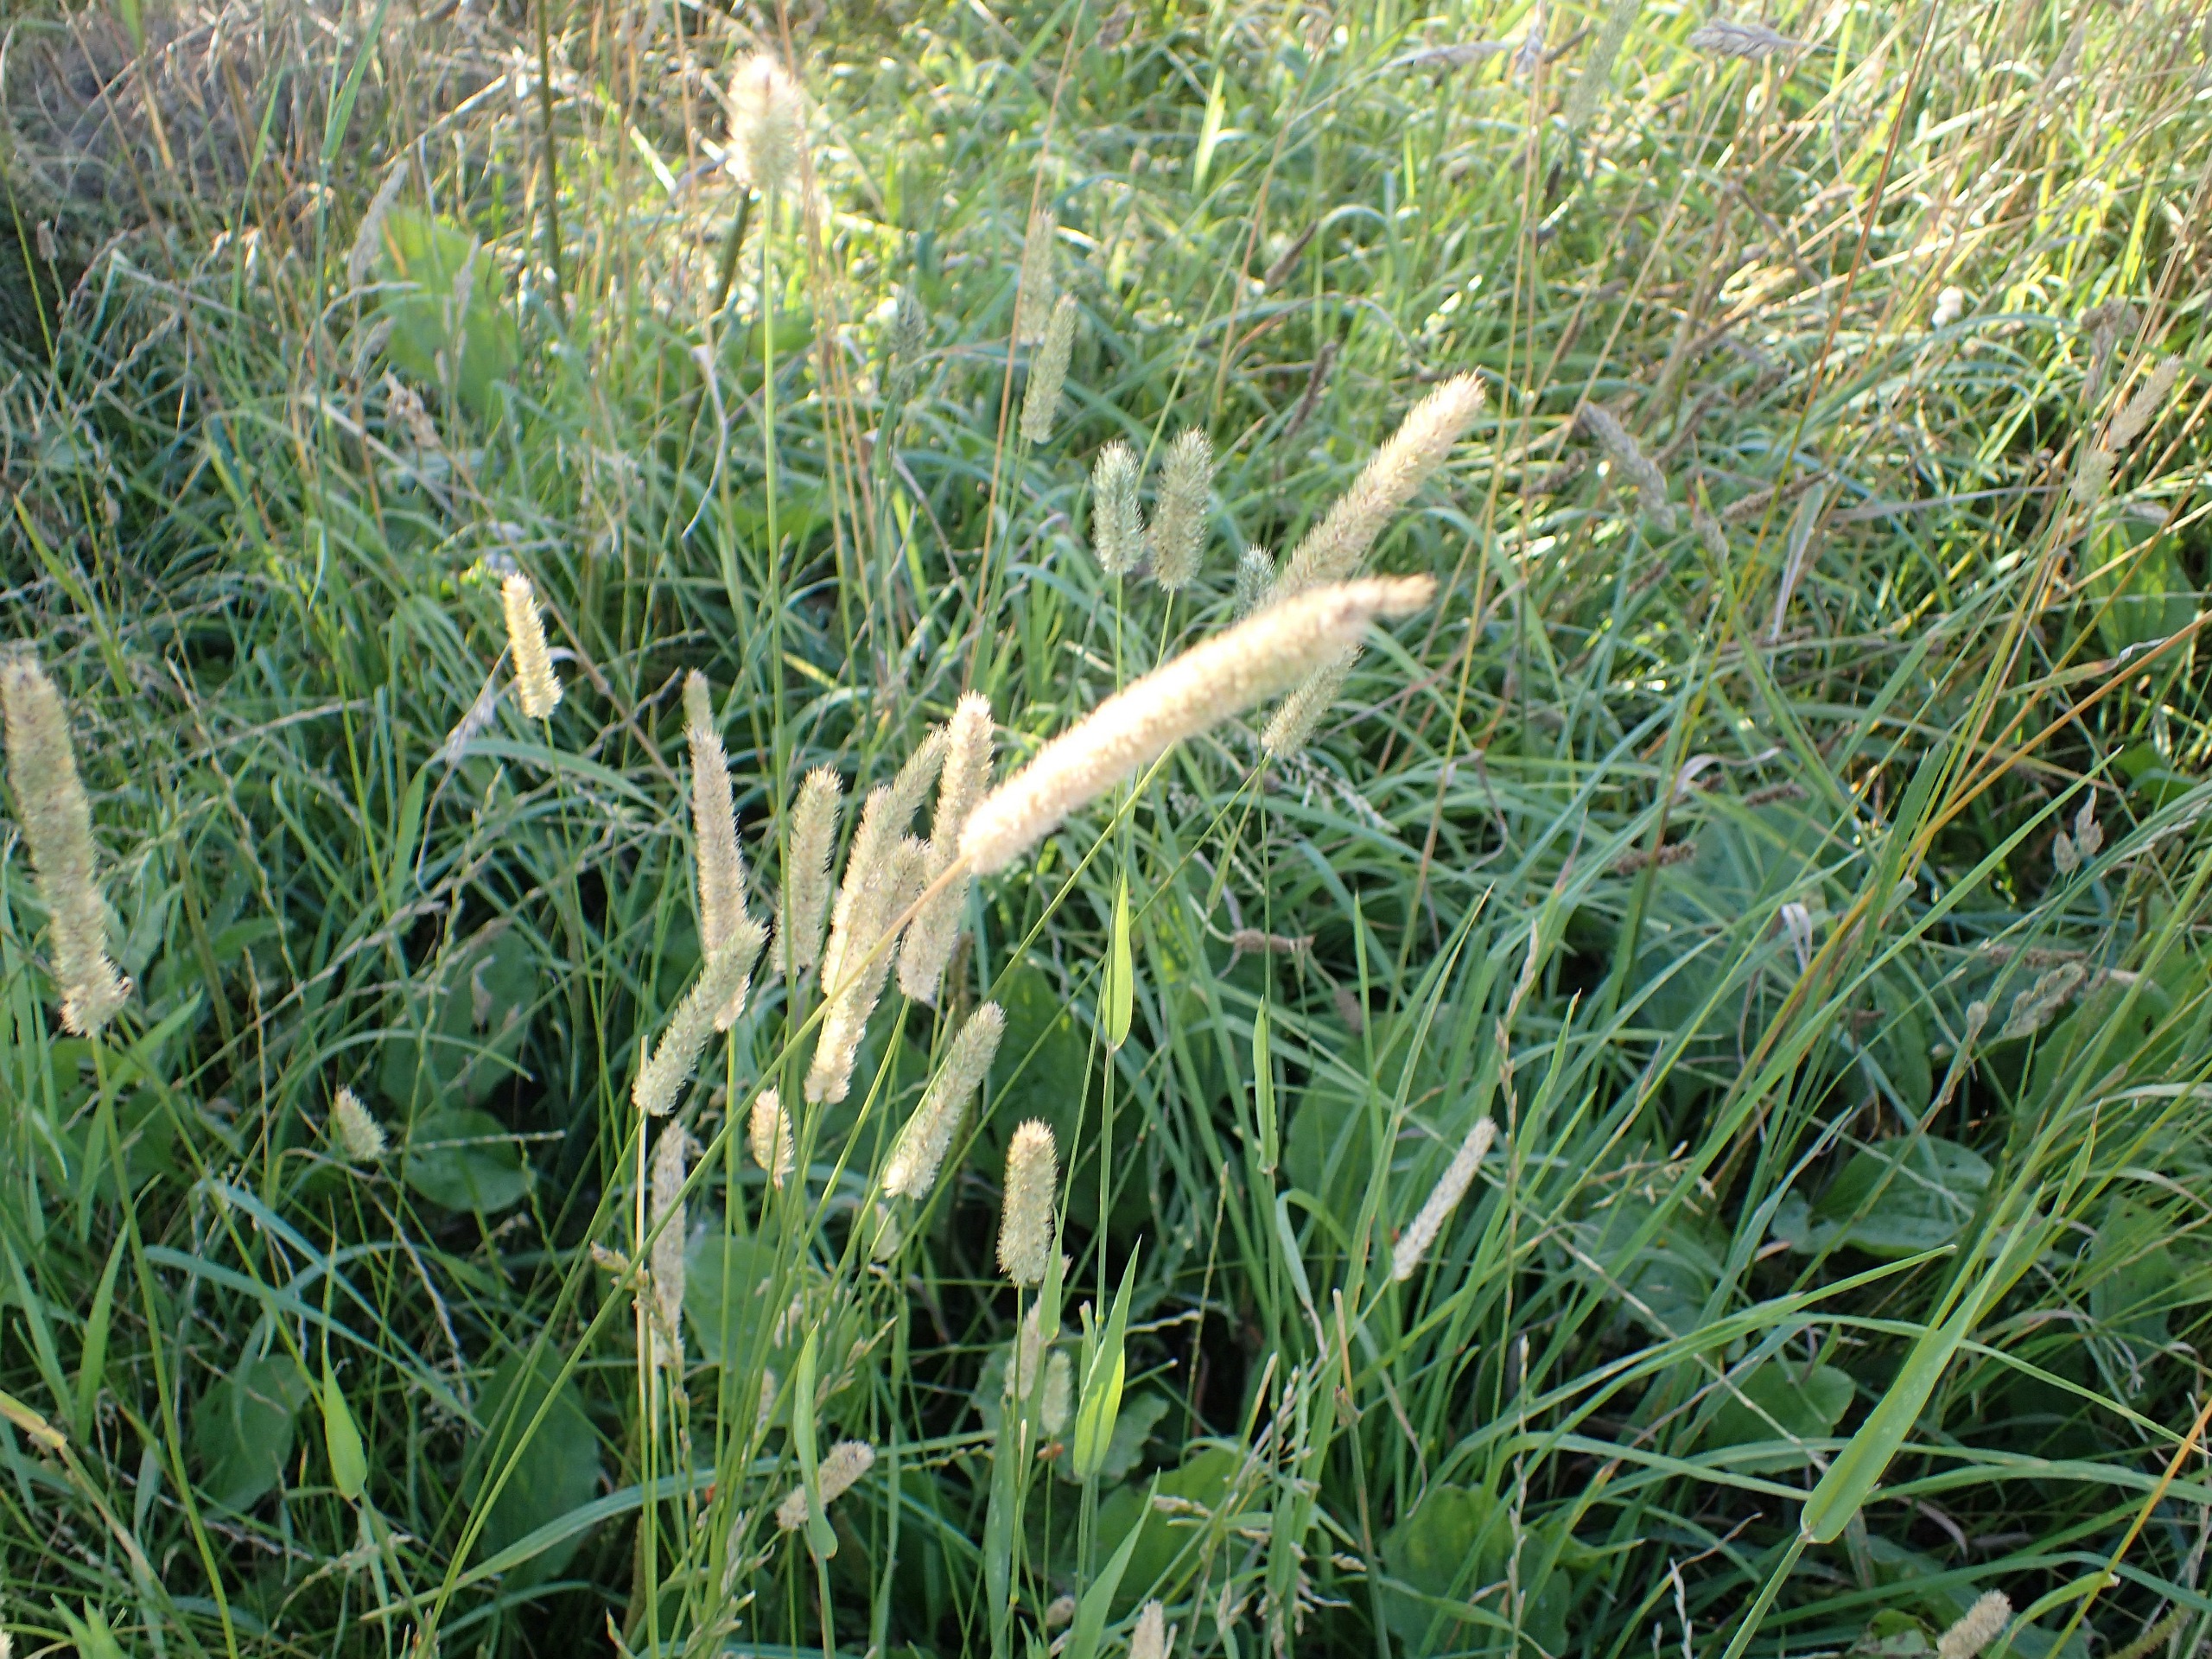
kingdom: Plantae
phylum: Tracheophyta
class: Liliopsida
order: Poales
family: Poaceae
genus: Phleum
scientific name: Phleum pratense
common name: Eng-rottehale
